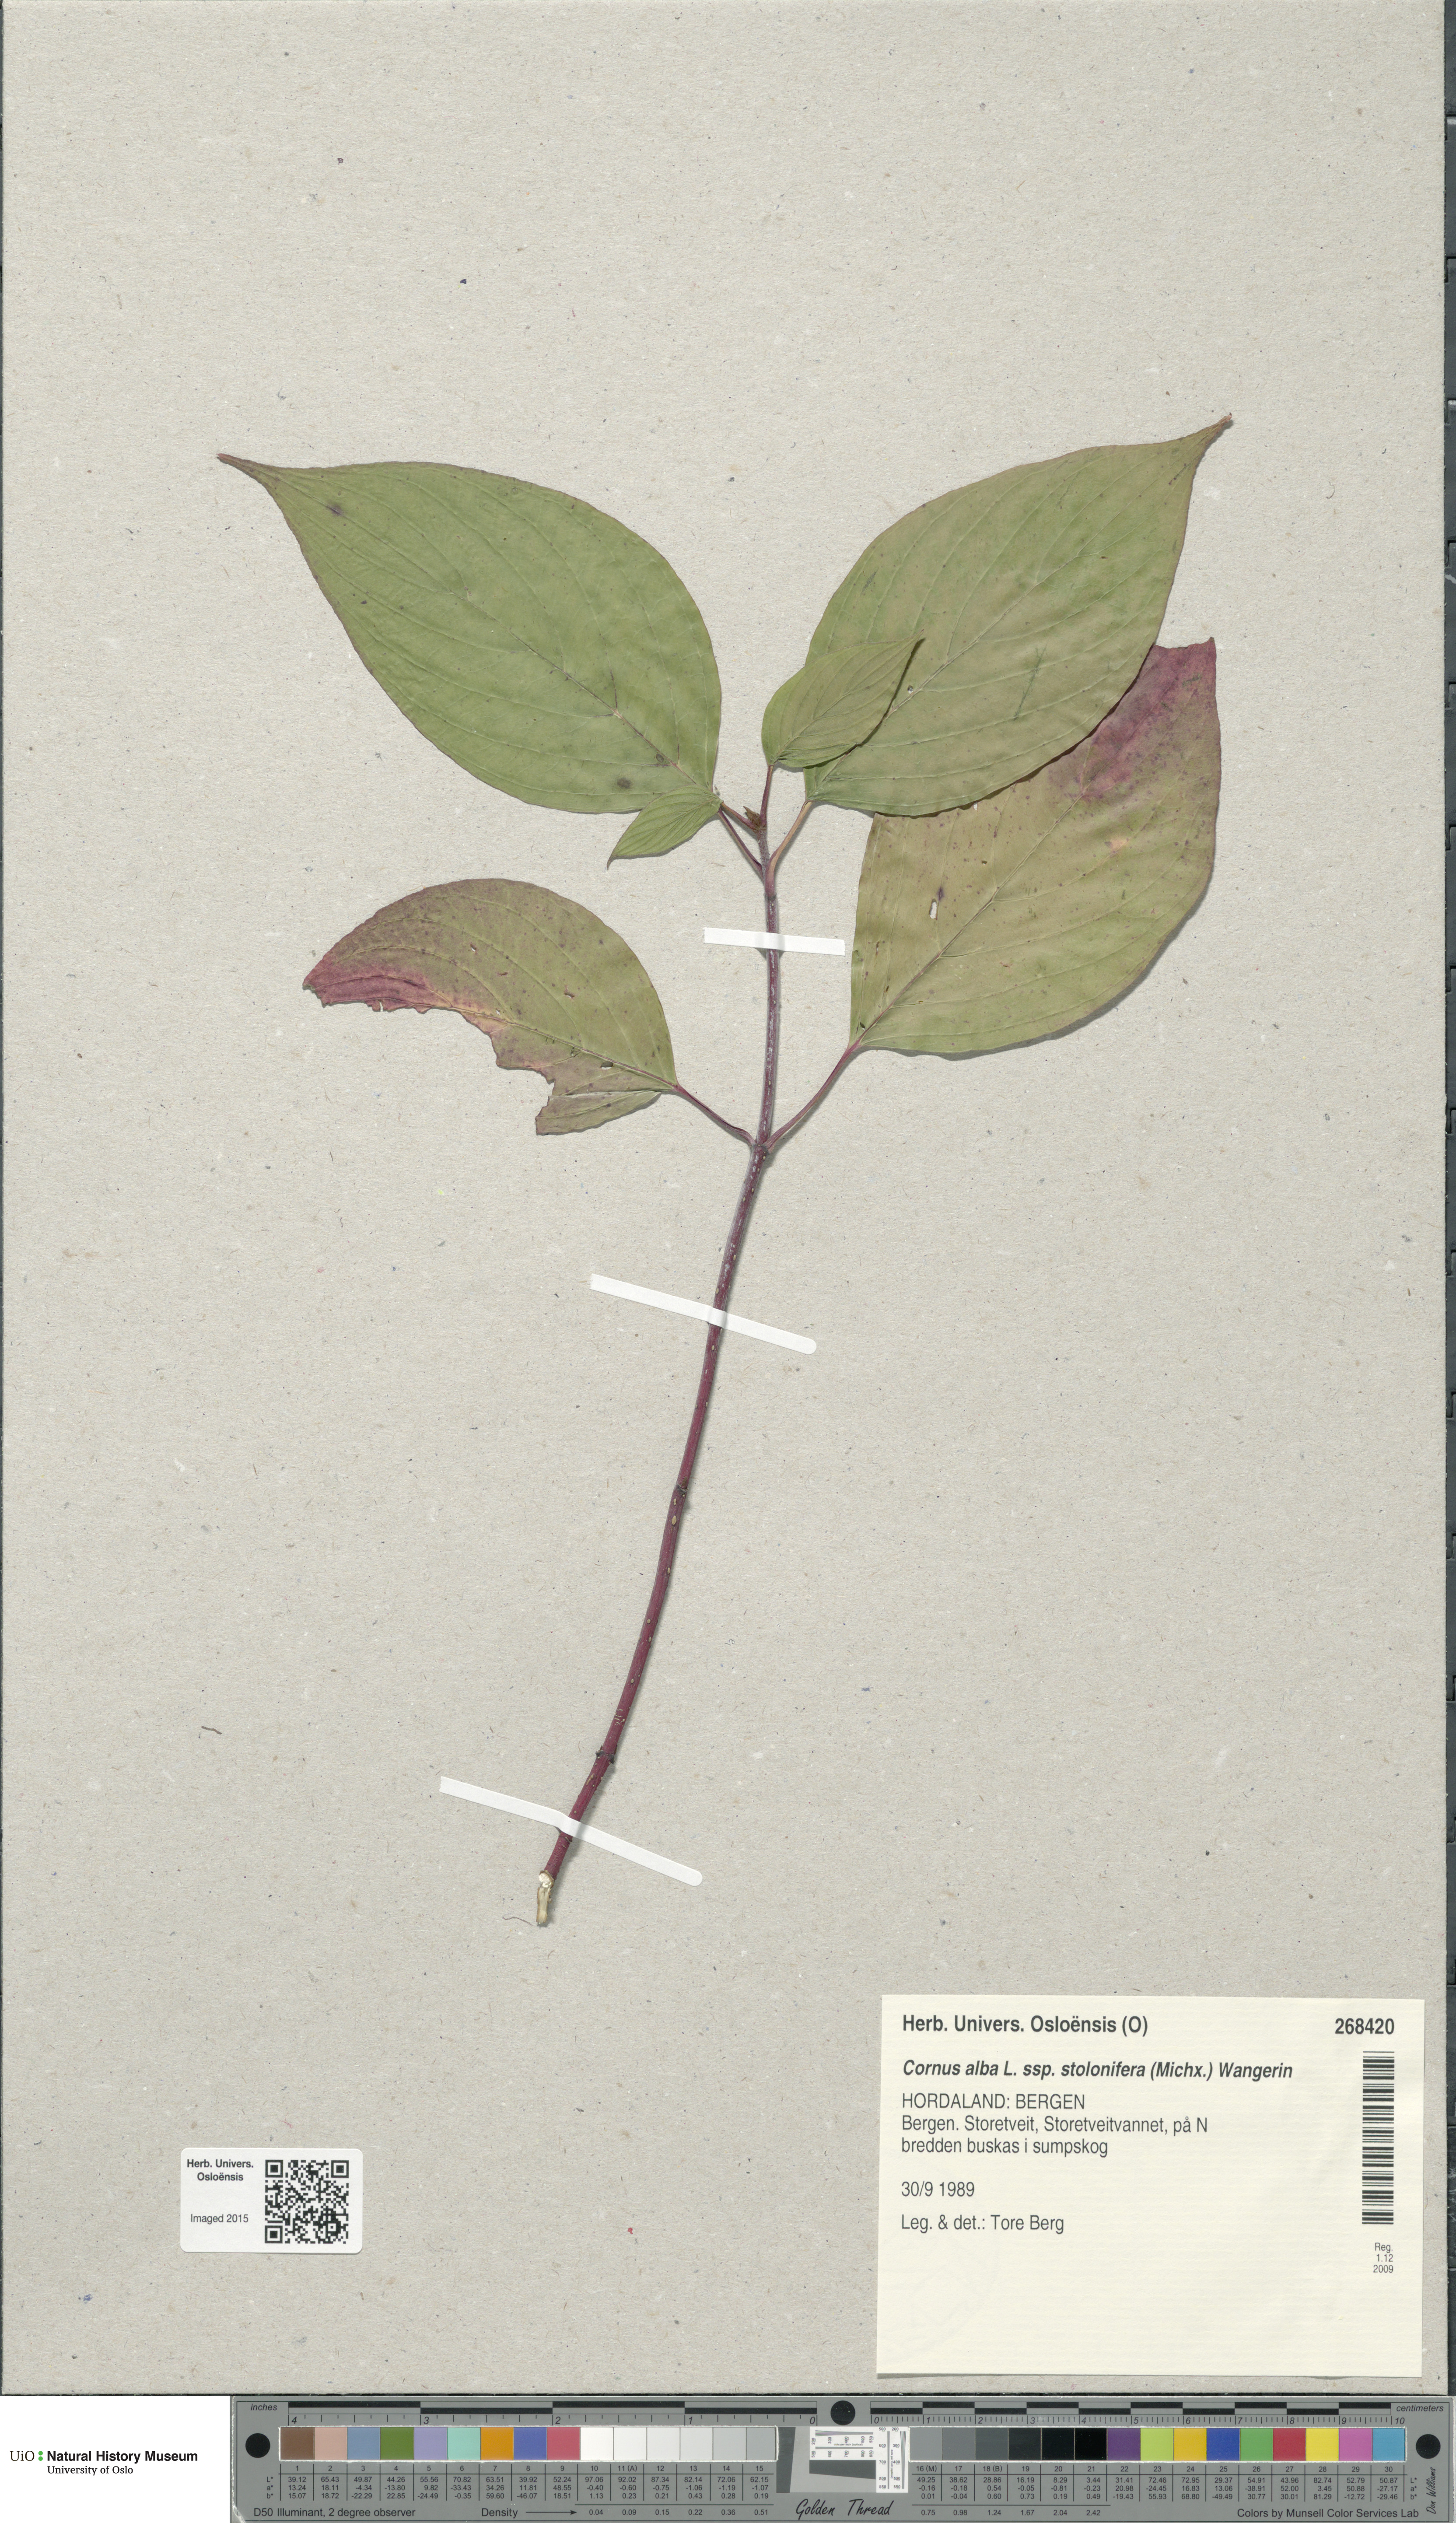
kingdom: Plantae
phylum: Tracheophyta
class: Magnoliopsida
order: Cornales
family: Cornaceae
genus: Cornus
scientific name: Cornus sericea
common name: Red-osier dogwood
